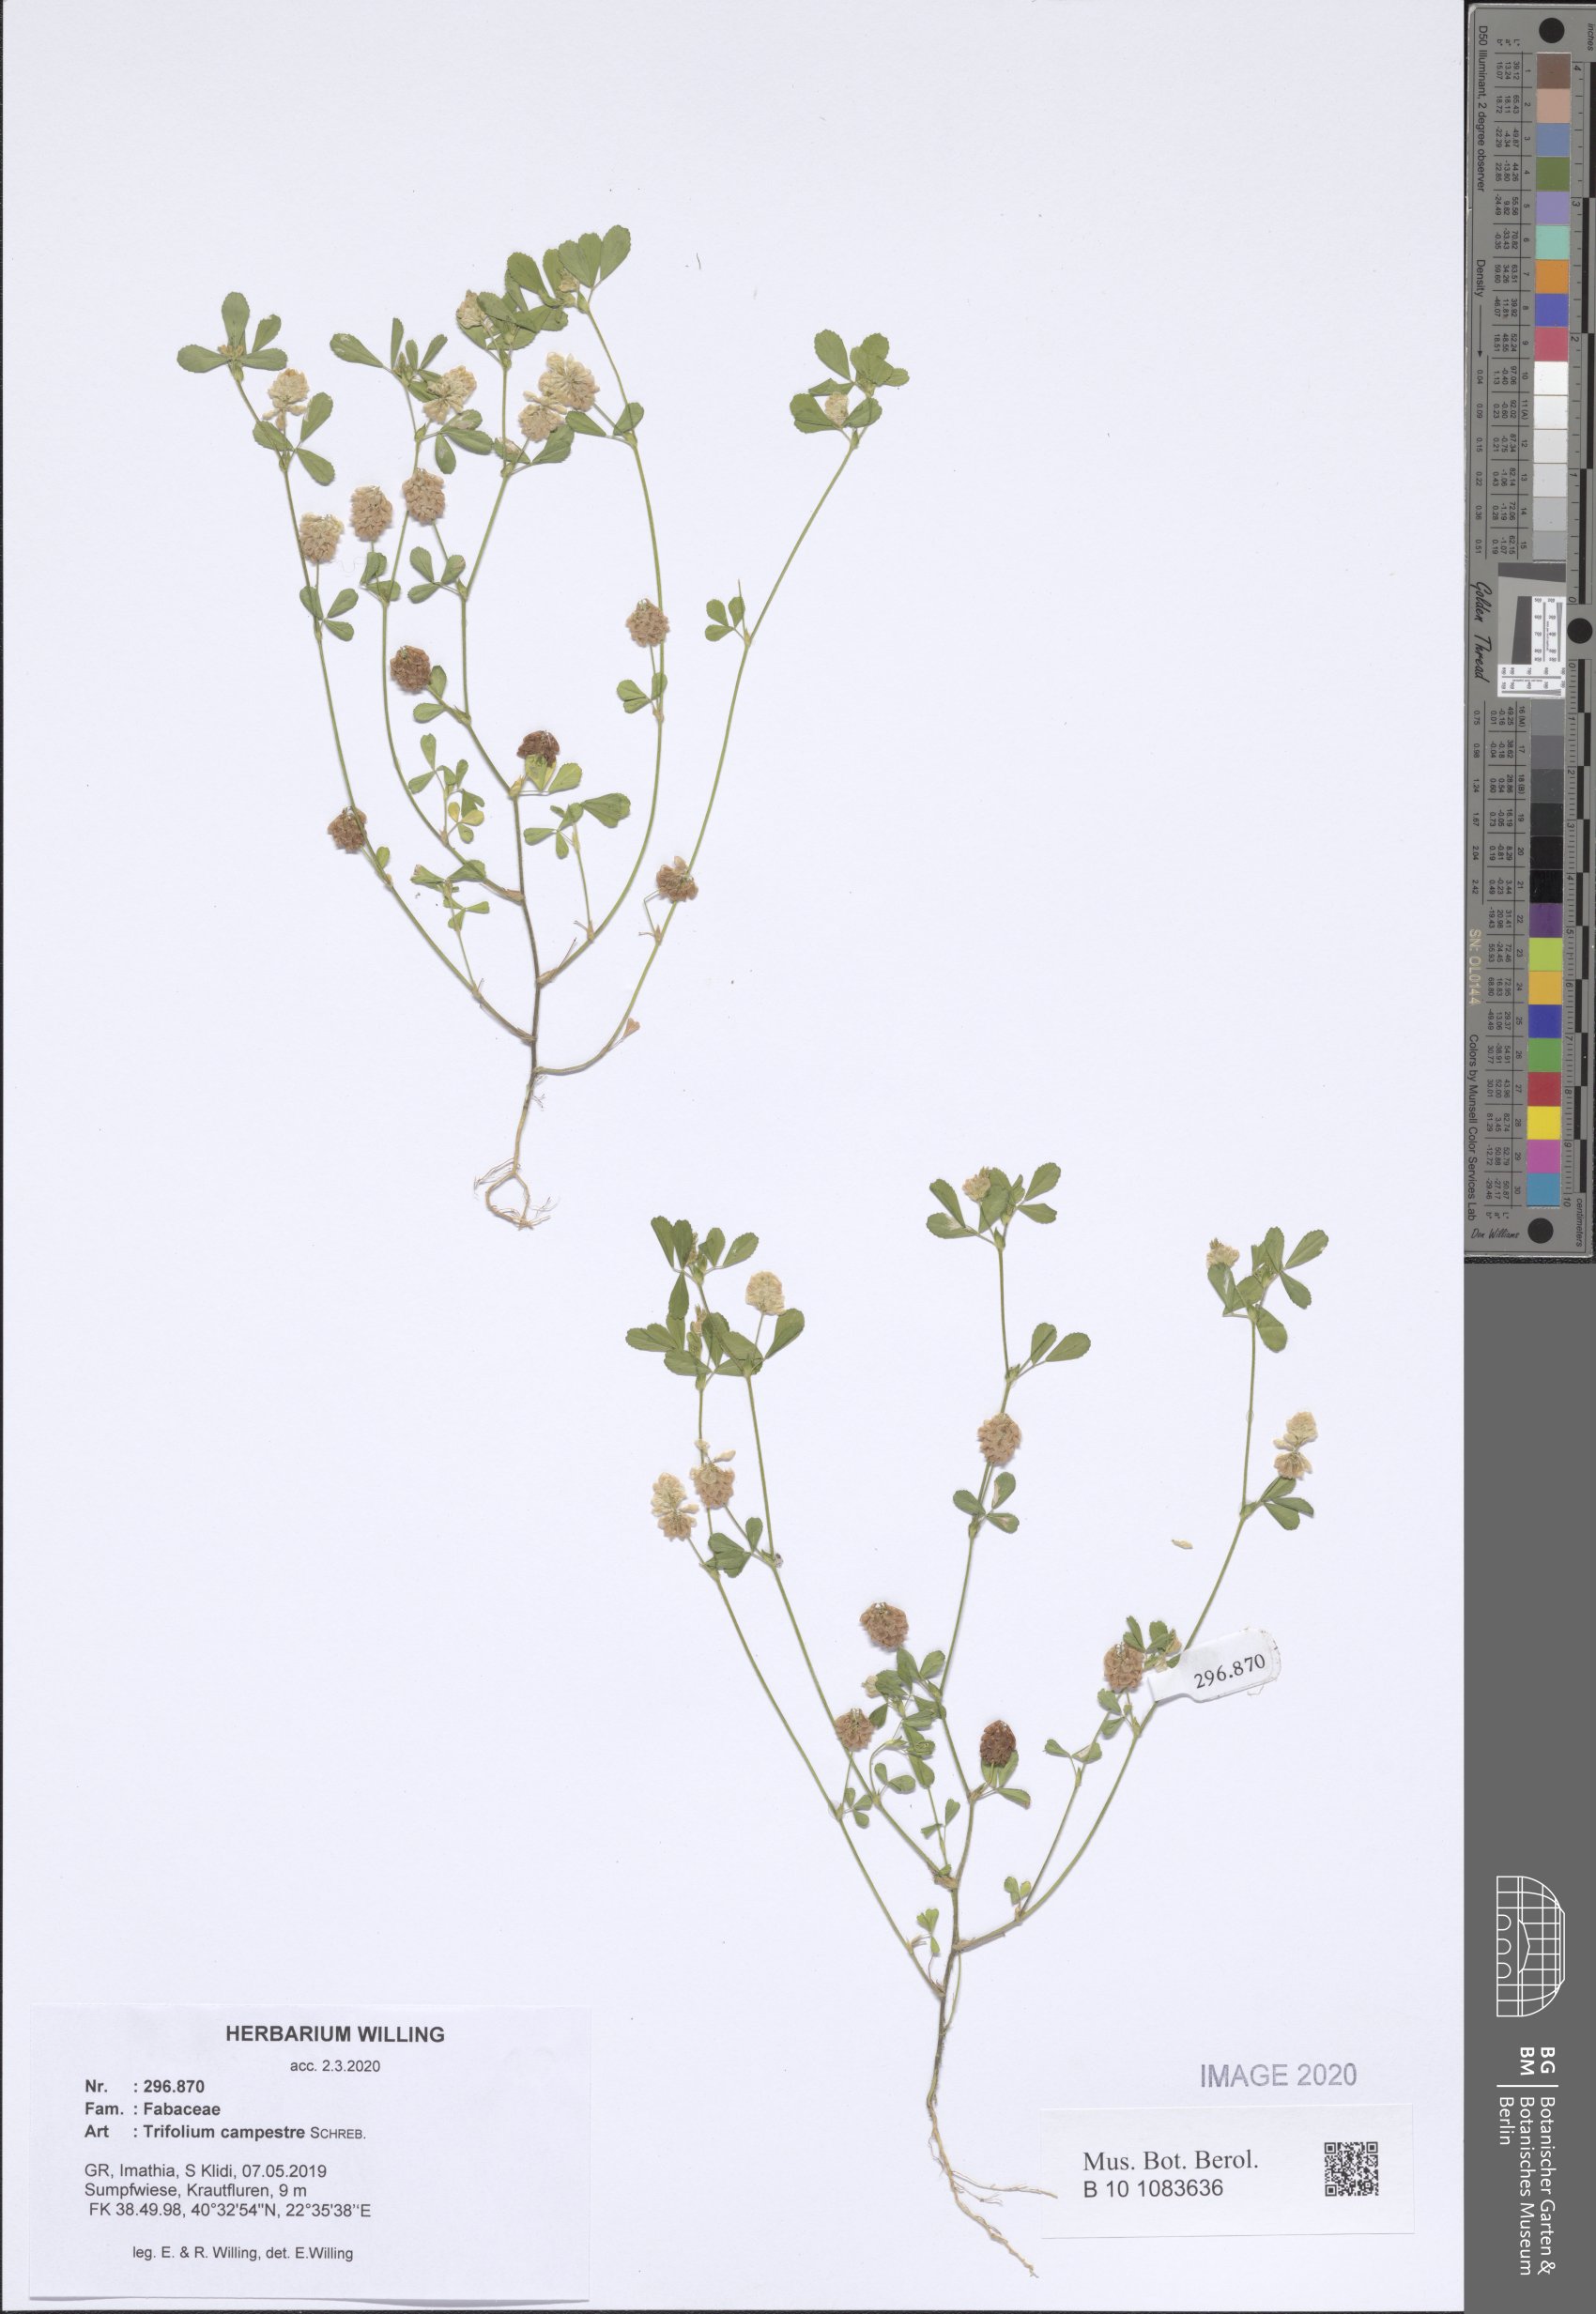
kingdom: Plantae
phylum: Tracheophyta
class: Magnoliopsida
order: Fabales
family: Fabaceae
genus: Trifolium
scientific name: Trifolium campestre
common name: Field clover
